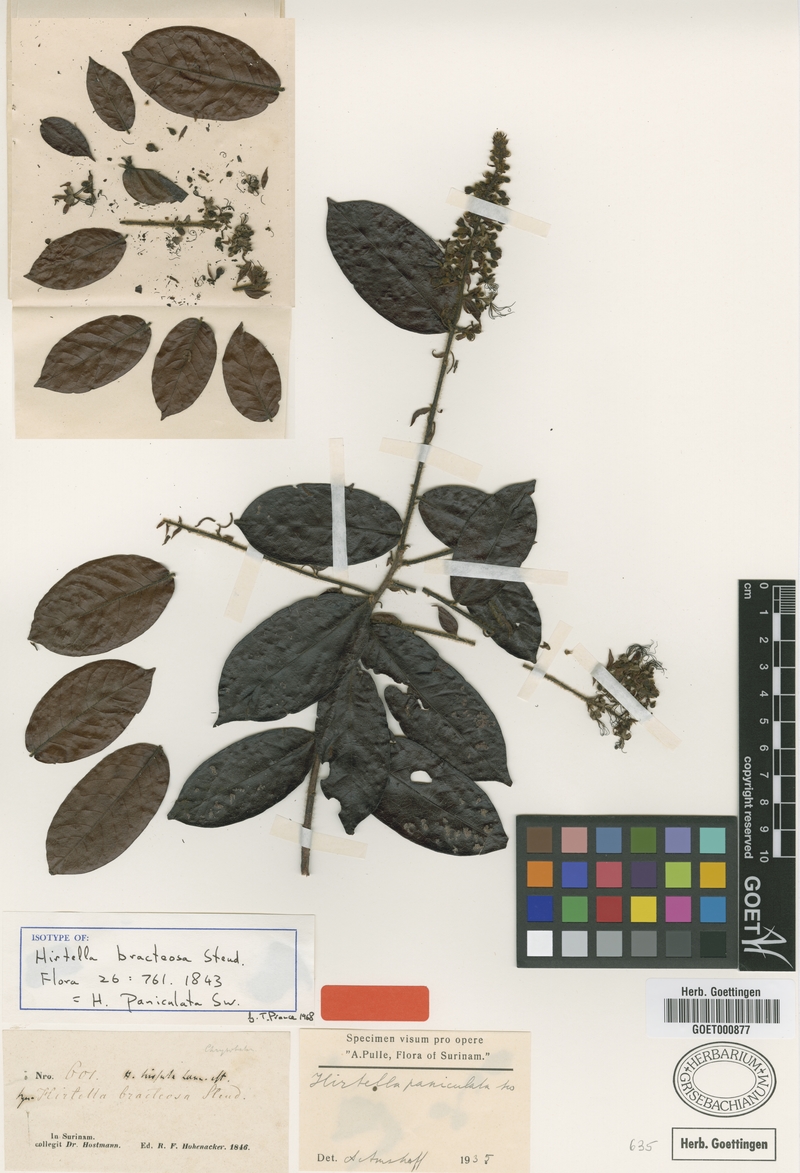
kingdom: Plantae
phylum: Tracheophyta
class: Magnoliopsida
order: Malpighiales
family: Chrysobalanaceae
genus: Hirtella
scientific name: Hirtella paniculata
